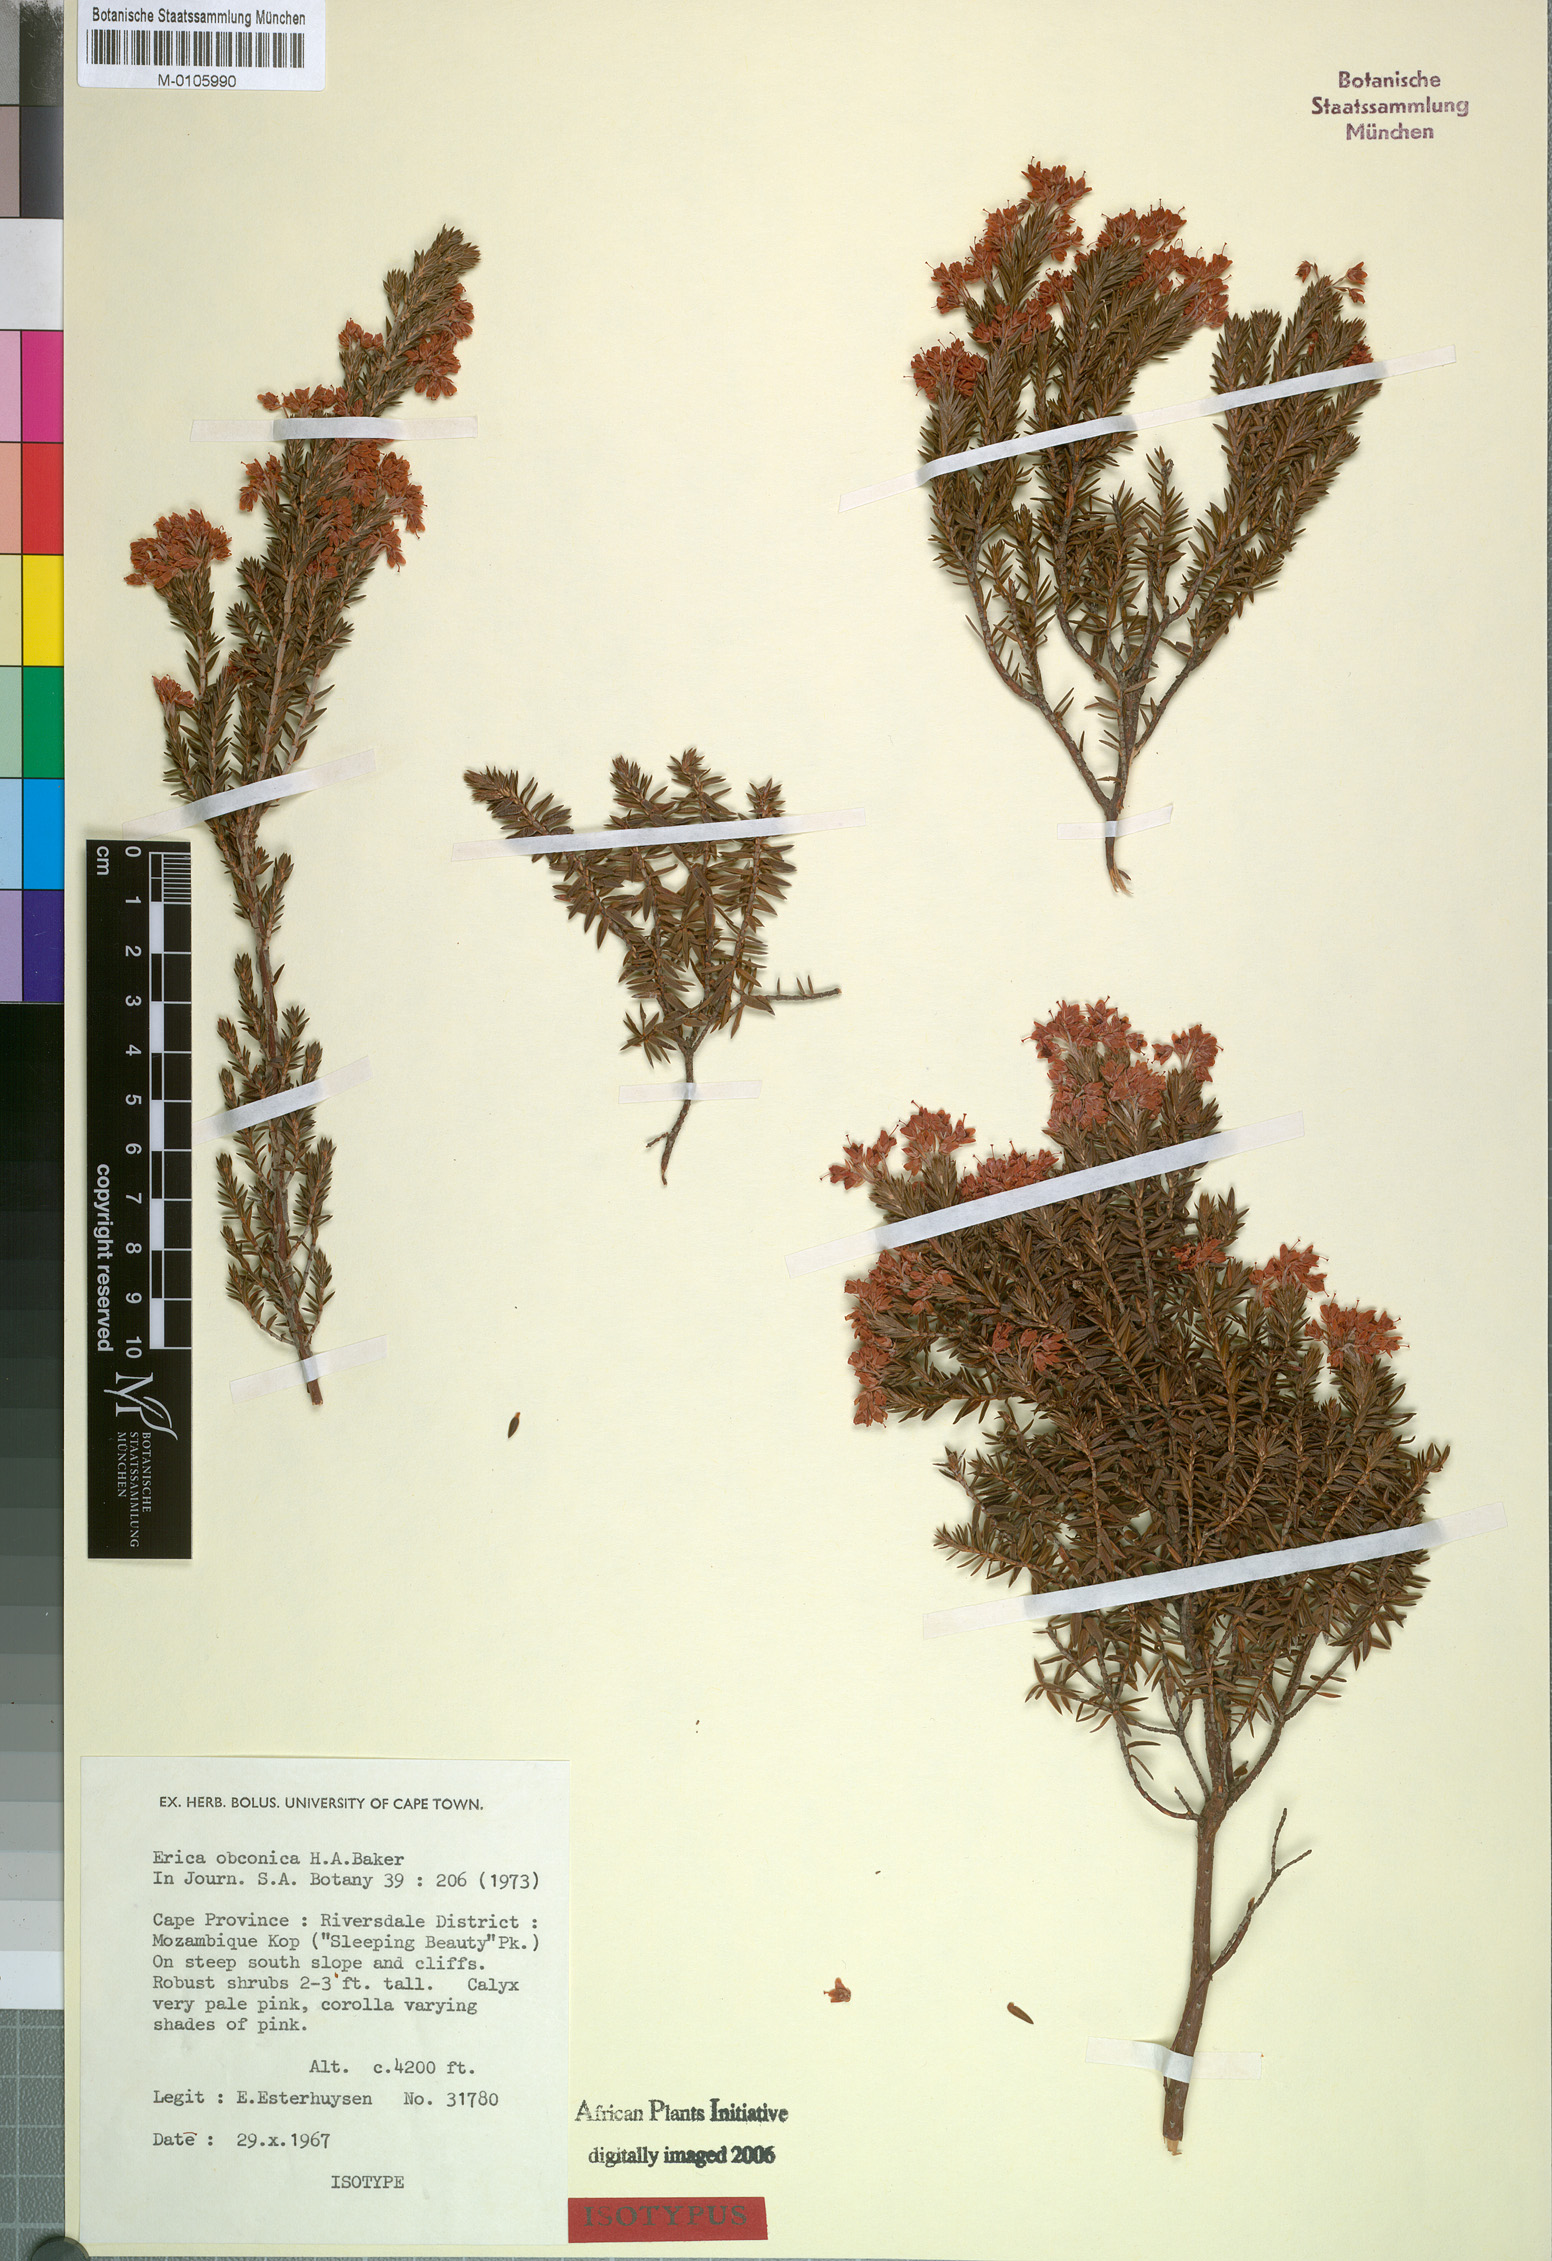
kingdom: Plantae
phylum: Tracheophyta
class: Magnoliopsida
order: Ericales
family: Ericaceae
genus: Erica
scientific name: Erica obconica
